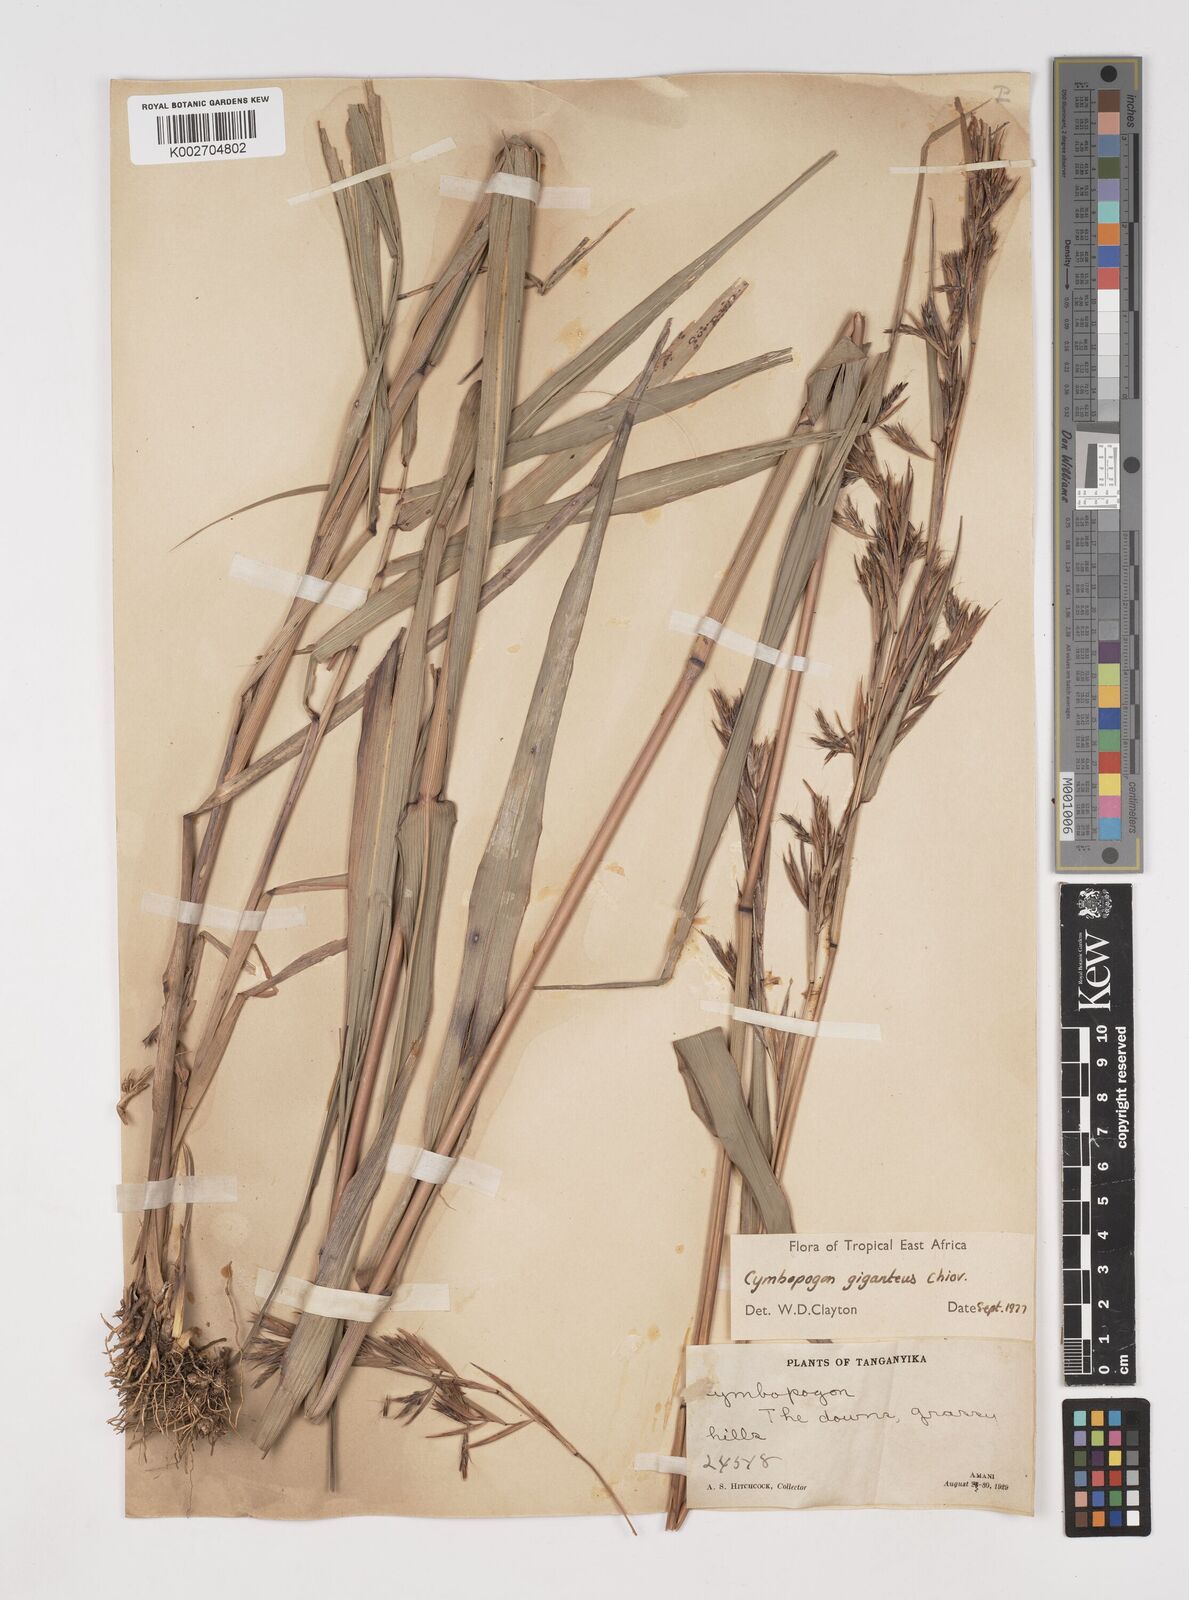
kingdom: Plantae
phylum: Tracheophyta
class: Liliopsida
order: Poales
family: Poaceae
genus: Cymbopogon
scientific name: Cymbopogon giganteus
